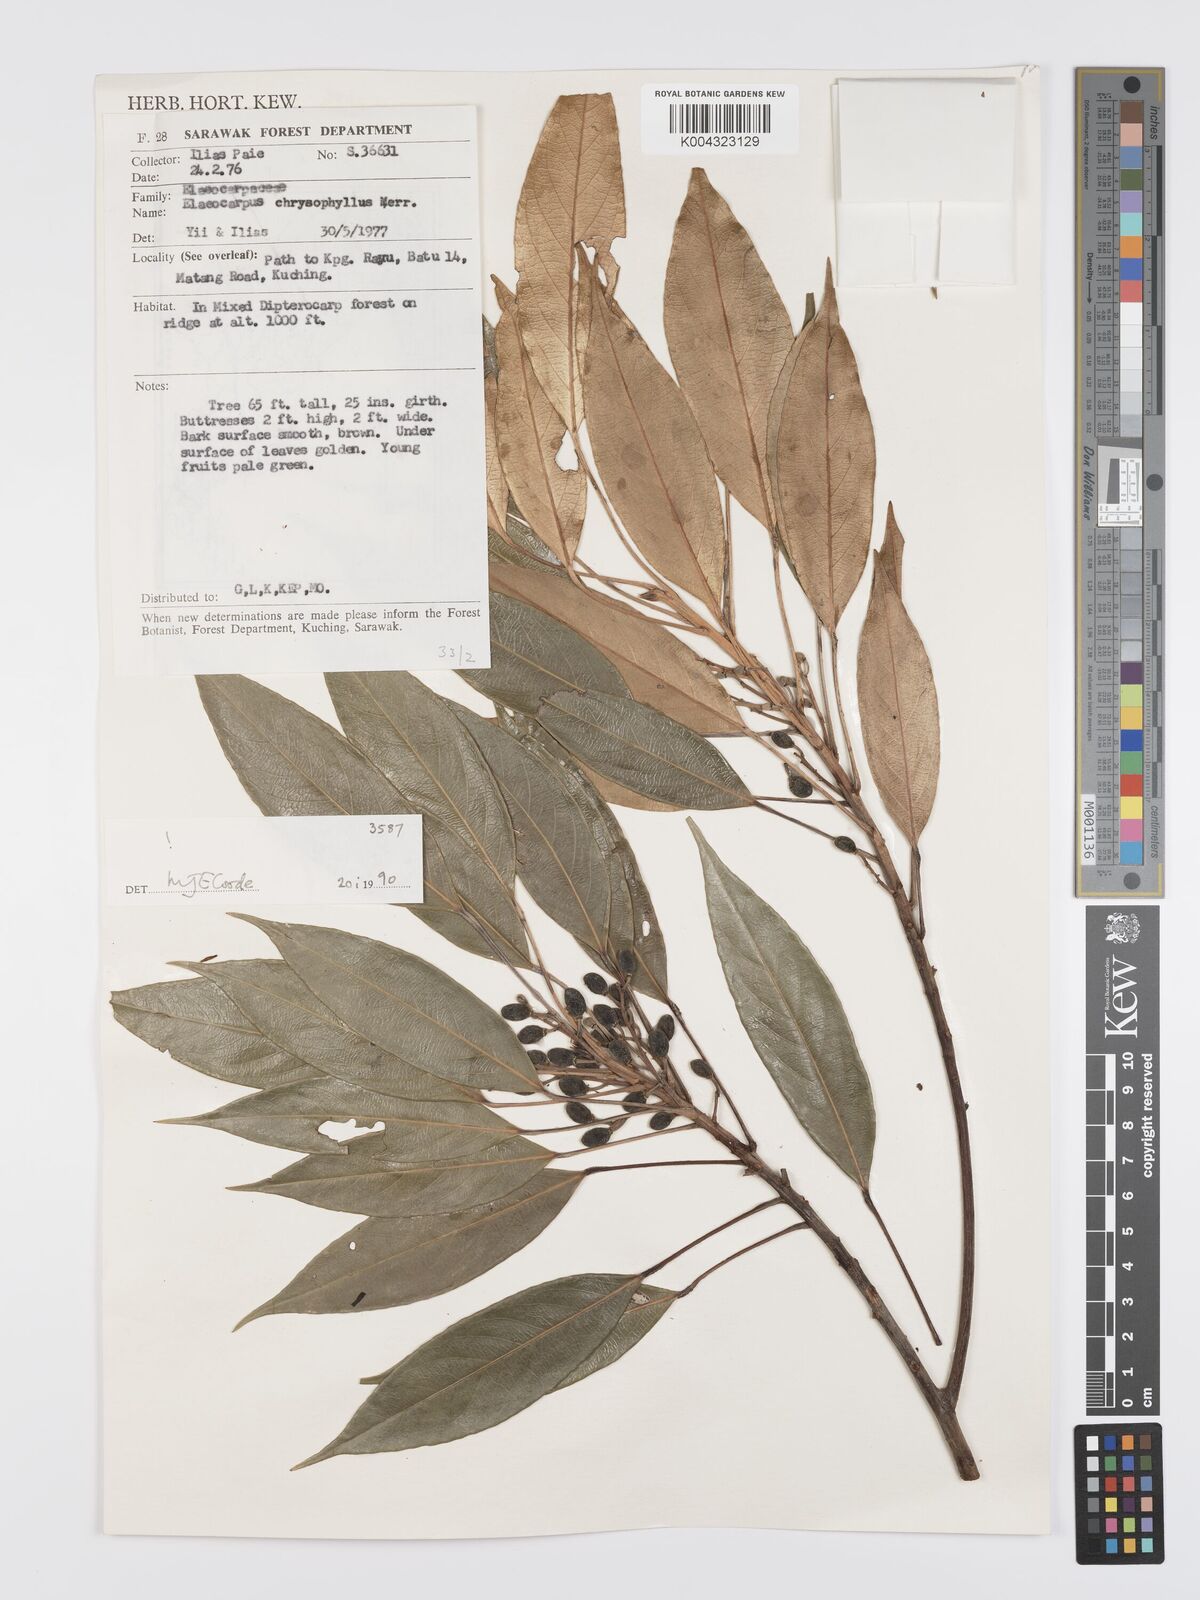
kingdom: Plantae
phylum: Tracheophyta
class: Magnoliopsida
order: Oxalidales
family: Elaeocarpaceae
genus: Elaeocarpus
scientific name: Elaeocarpus chrysophyllus
